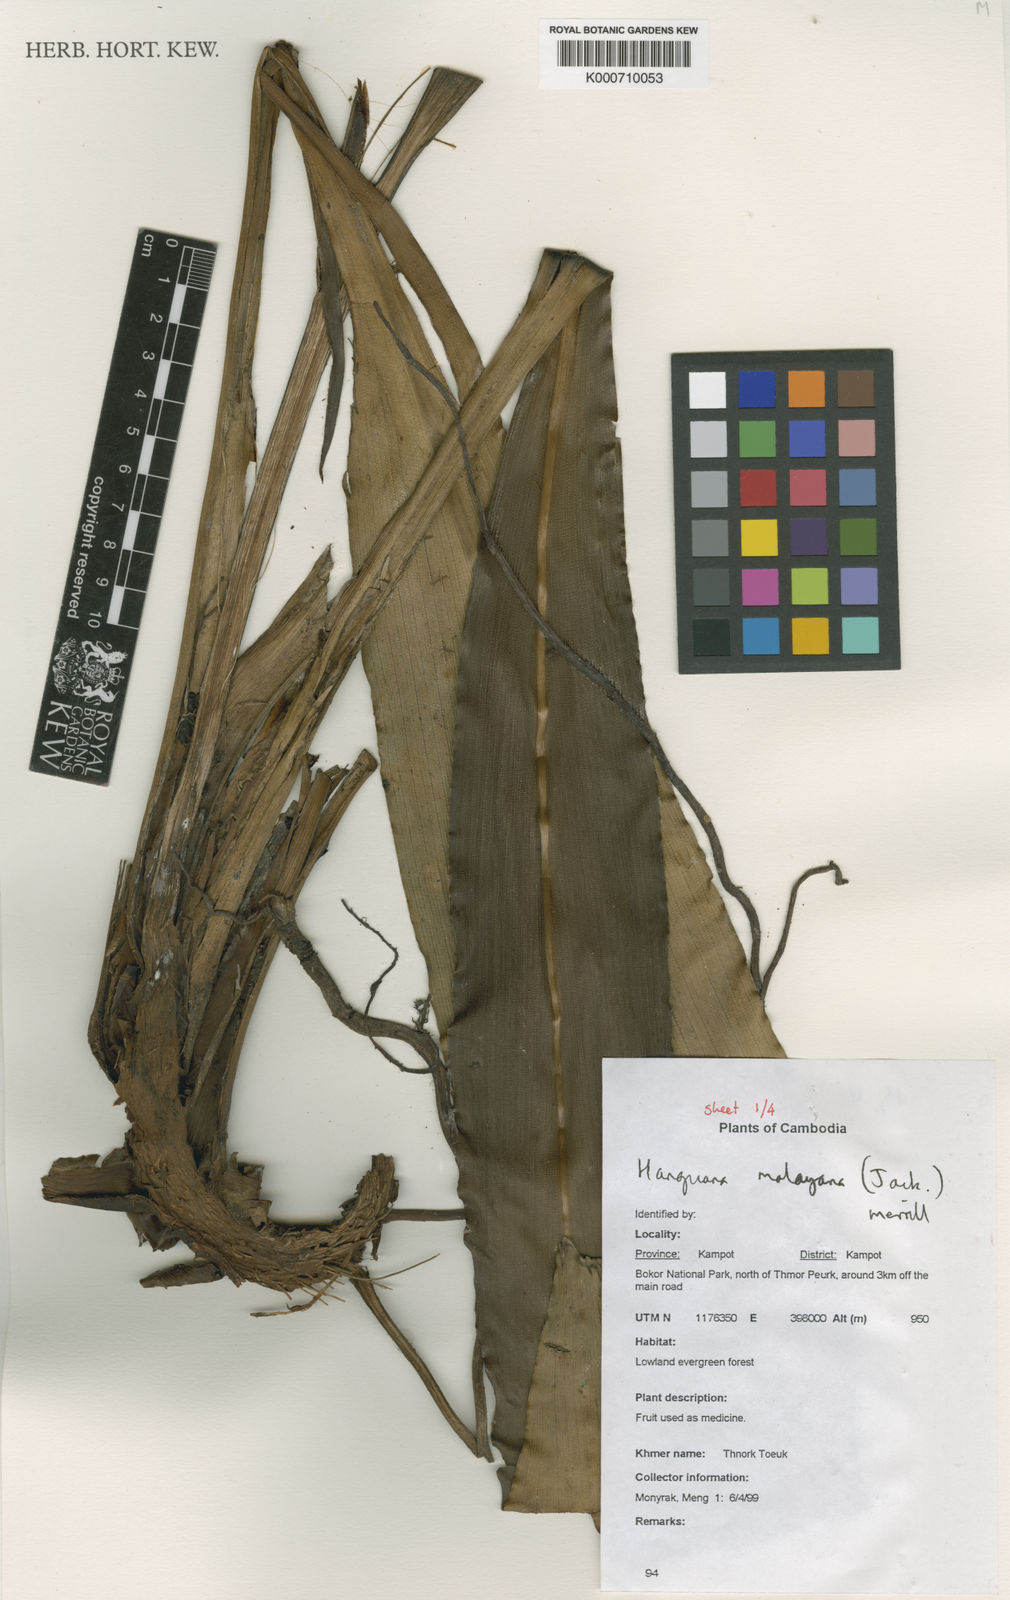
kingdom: Plantae
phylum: Tracheophyta
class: Liliopsida
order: Commelinales
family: Hanguanaceae
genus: Hanguana
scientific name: Hanguana malayana
